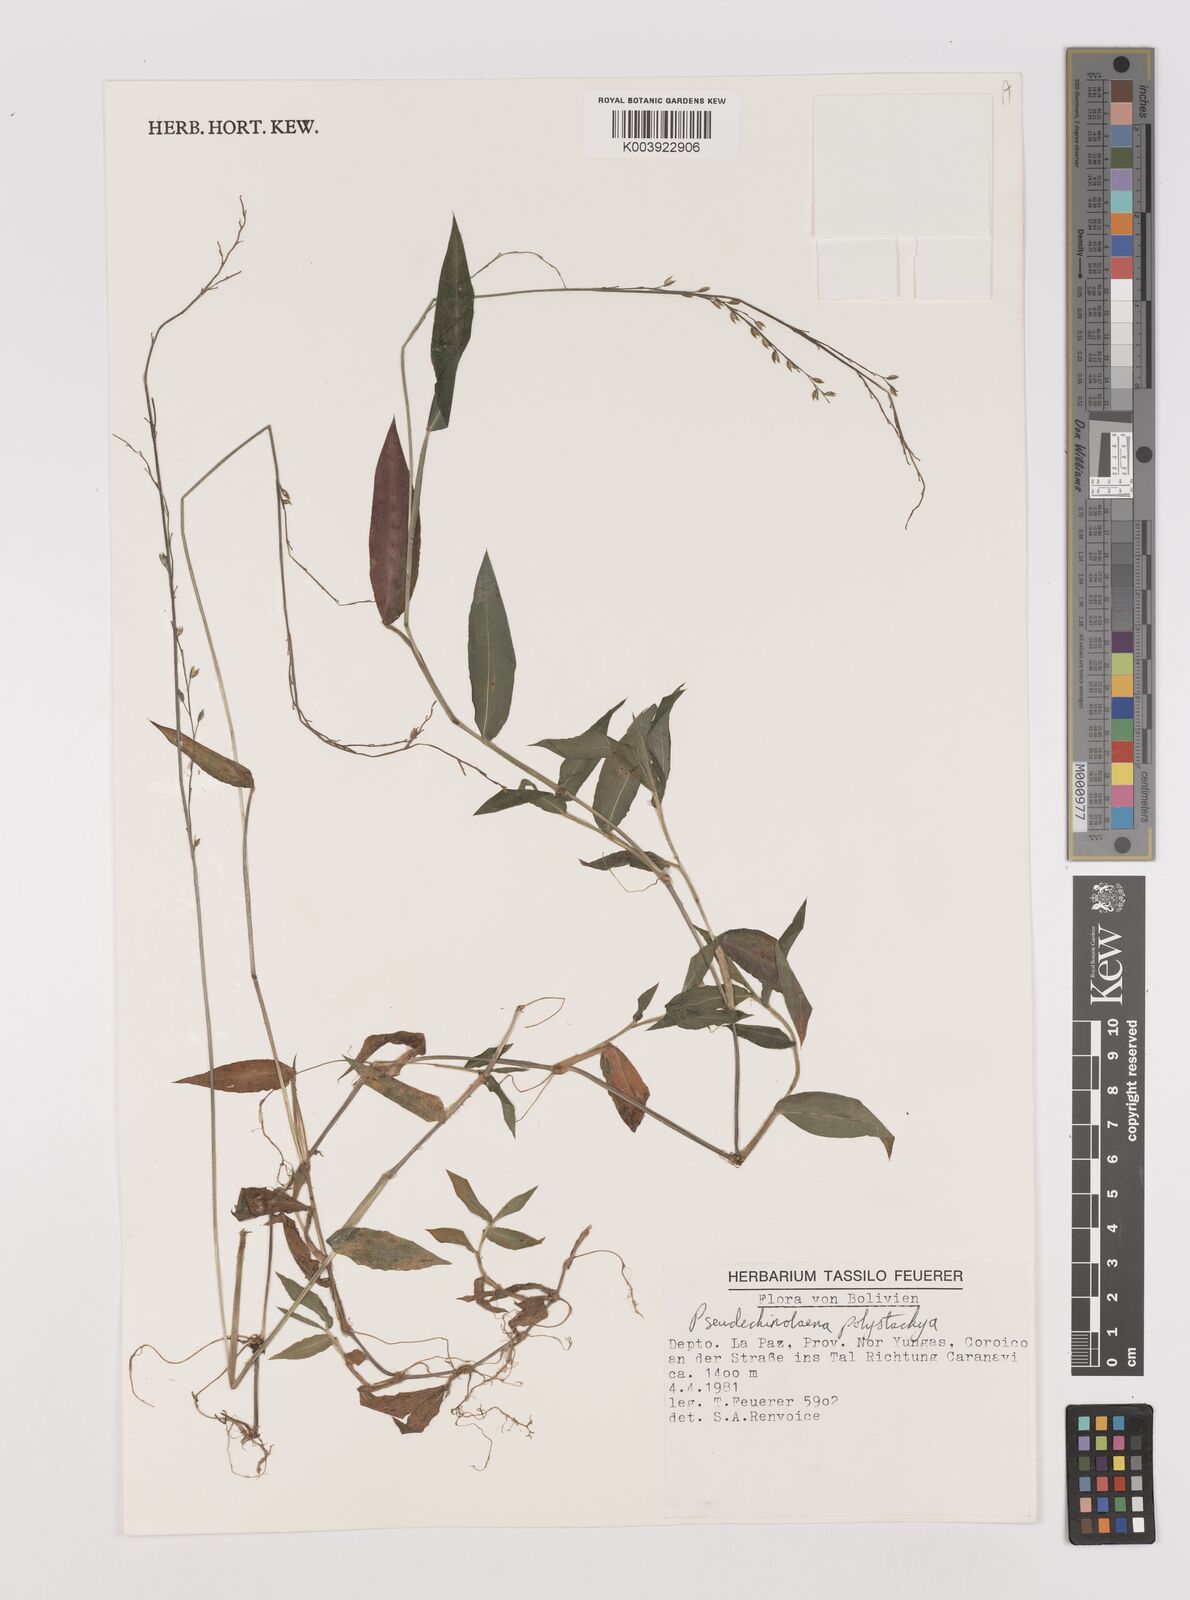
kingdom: Plantae
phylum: Tracheophyta
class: Liliopsida
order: Poales
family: Poaceae
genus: Pseudechinolaena
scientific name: Pseudechinolaena polystachya
